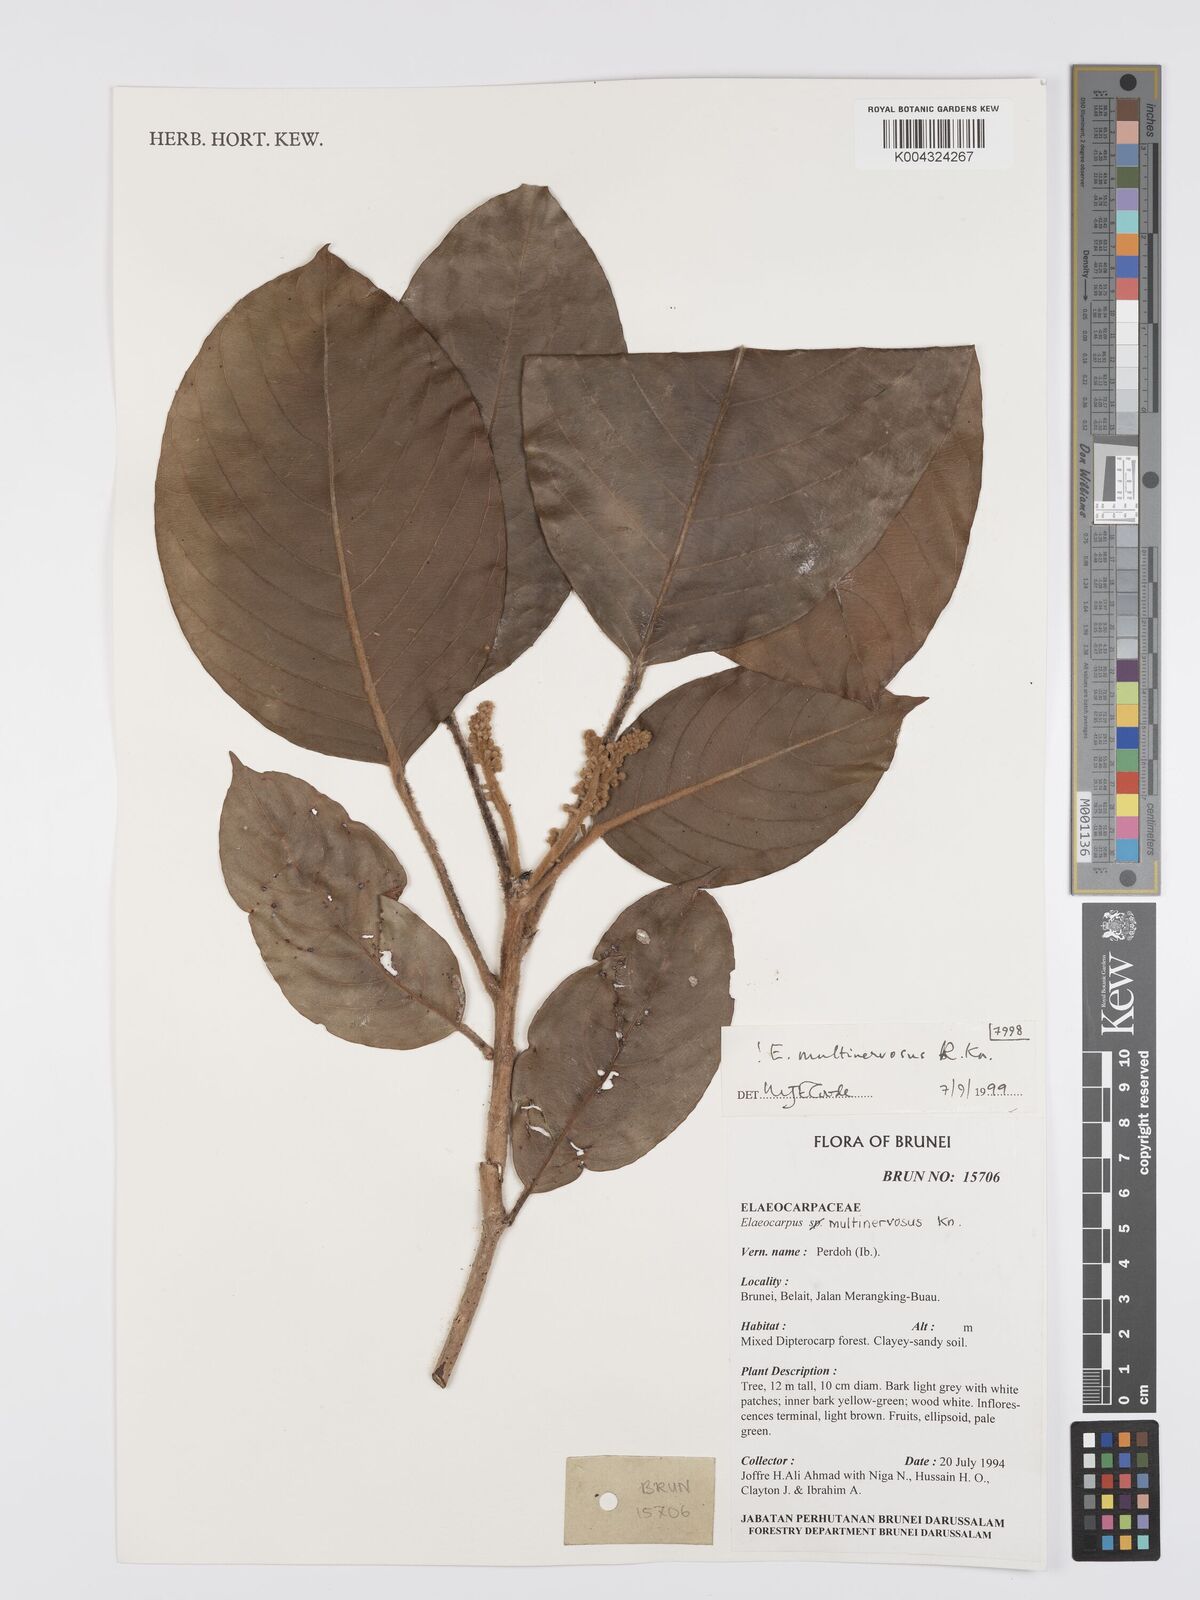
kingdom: Plantae
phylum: Tracheophyta
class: Magnoliopsida
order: Oxalidales
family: Elaeocarpaceae
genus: Elaeocarpus
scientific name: Elaeocarpus multinervosus
